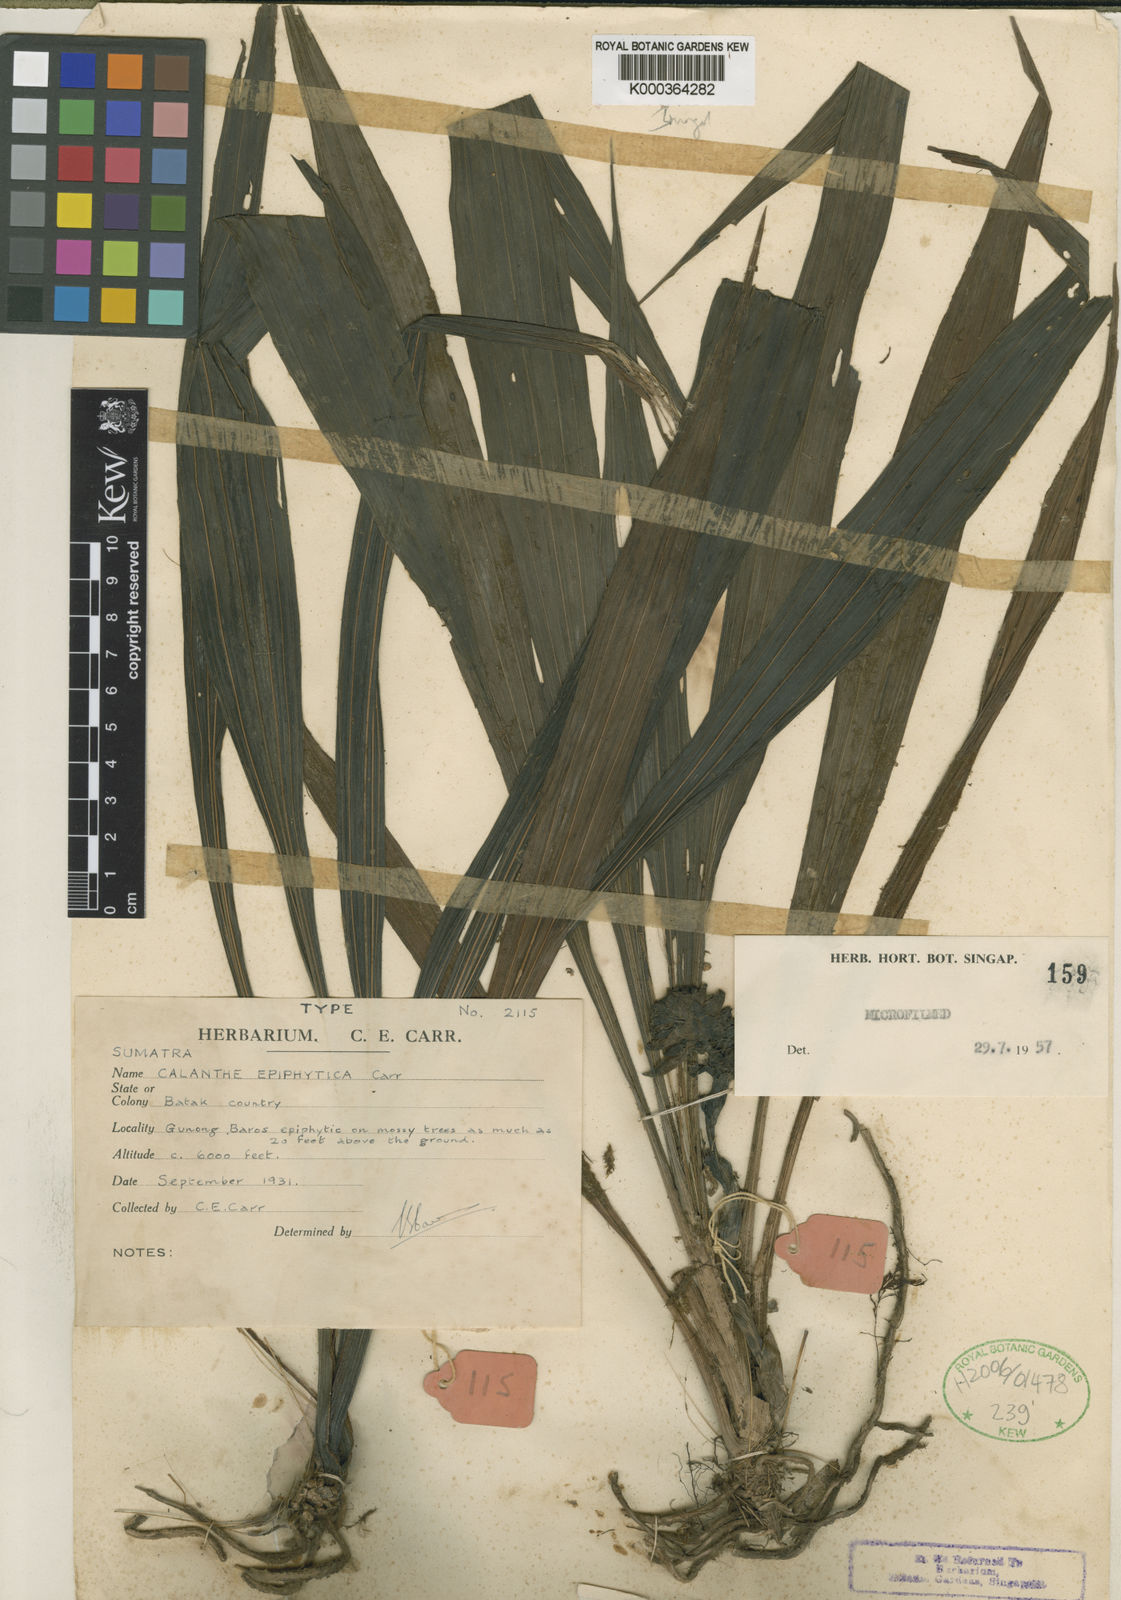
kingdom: Plantae
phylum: Tracheophyta
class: Liliopsida
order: Asparagales
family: Orchidaceae
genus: Calanthe
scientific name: Calanthe epiphytica
